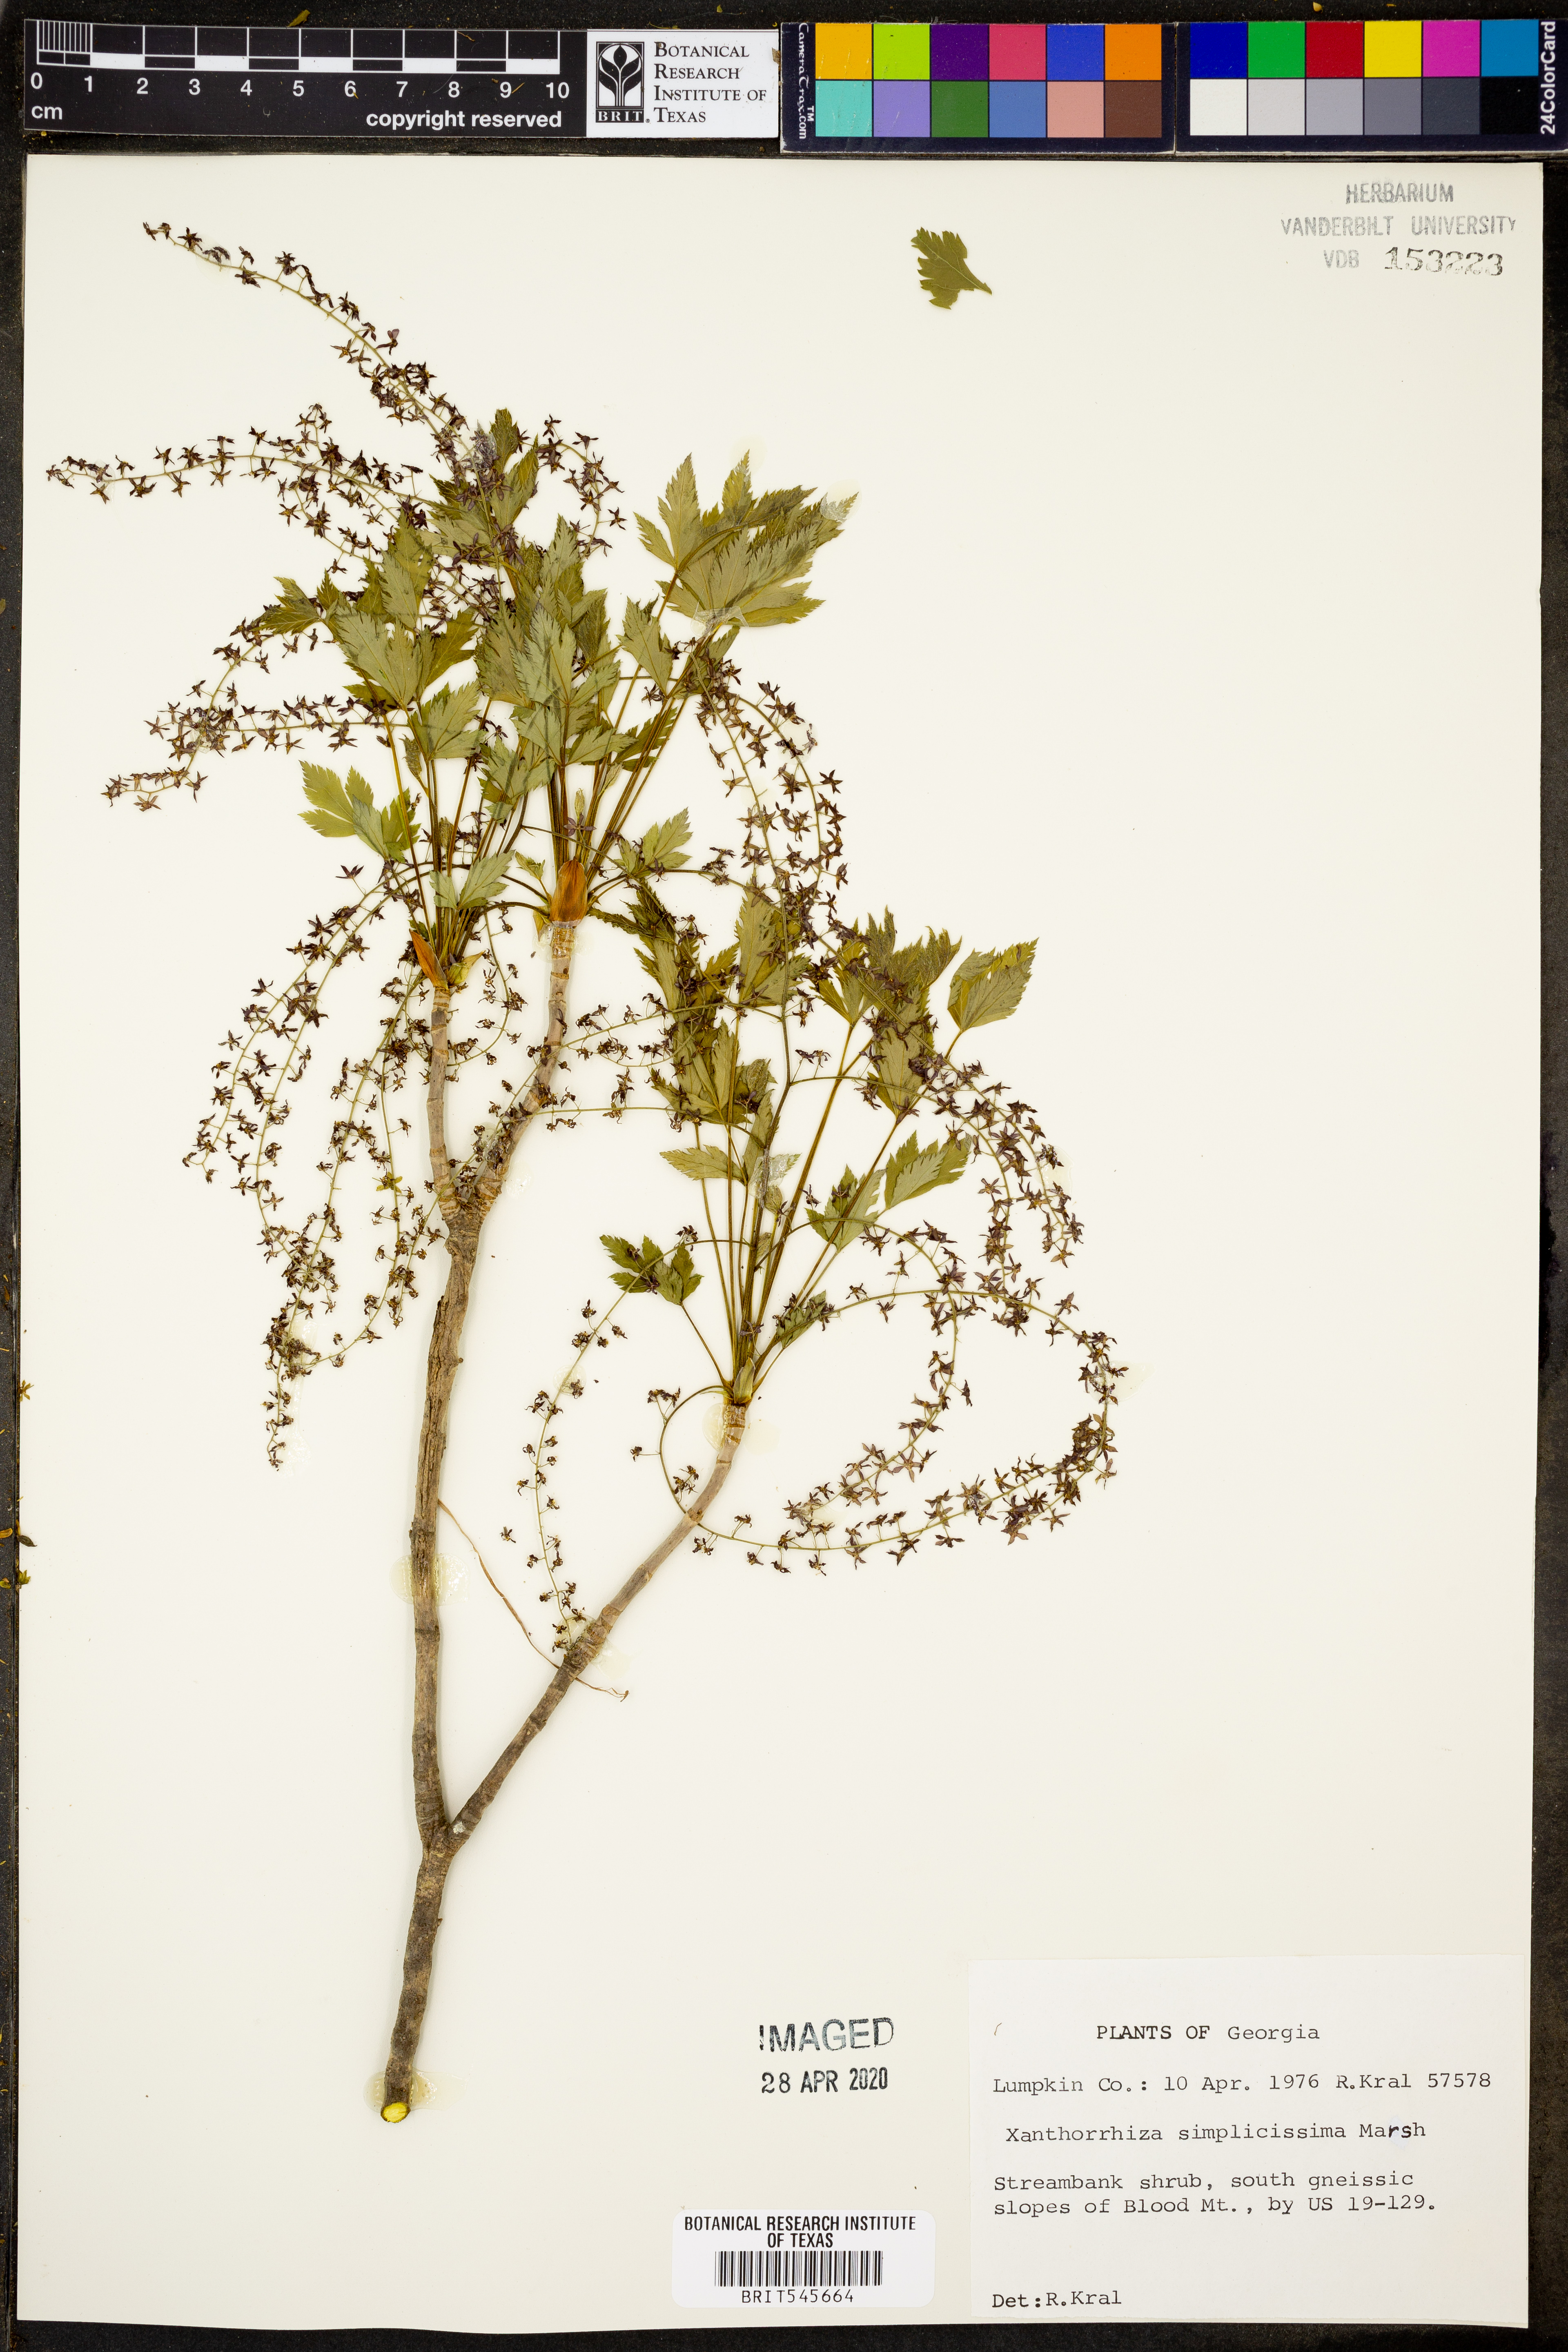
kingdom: Plantae
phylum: Tracheophyta
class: Magnoliopsida
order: Ranunculales
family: Ranunculaceae
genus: Xanthorhiza
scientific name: Xanthorhiza simplicissima
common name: Yellowroot
